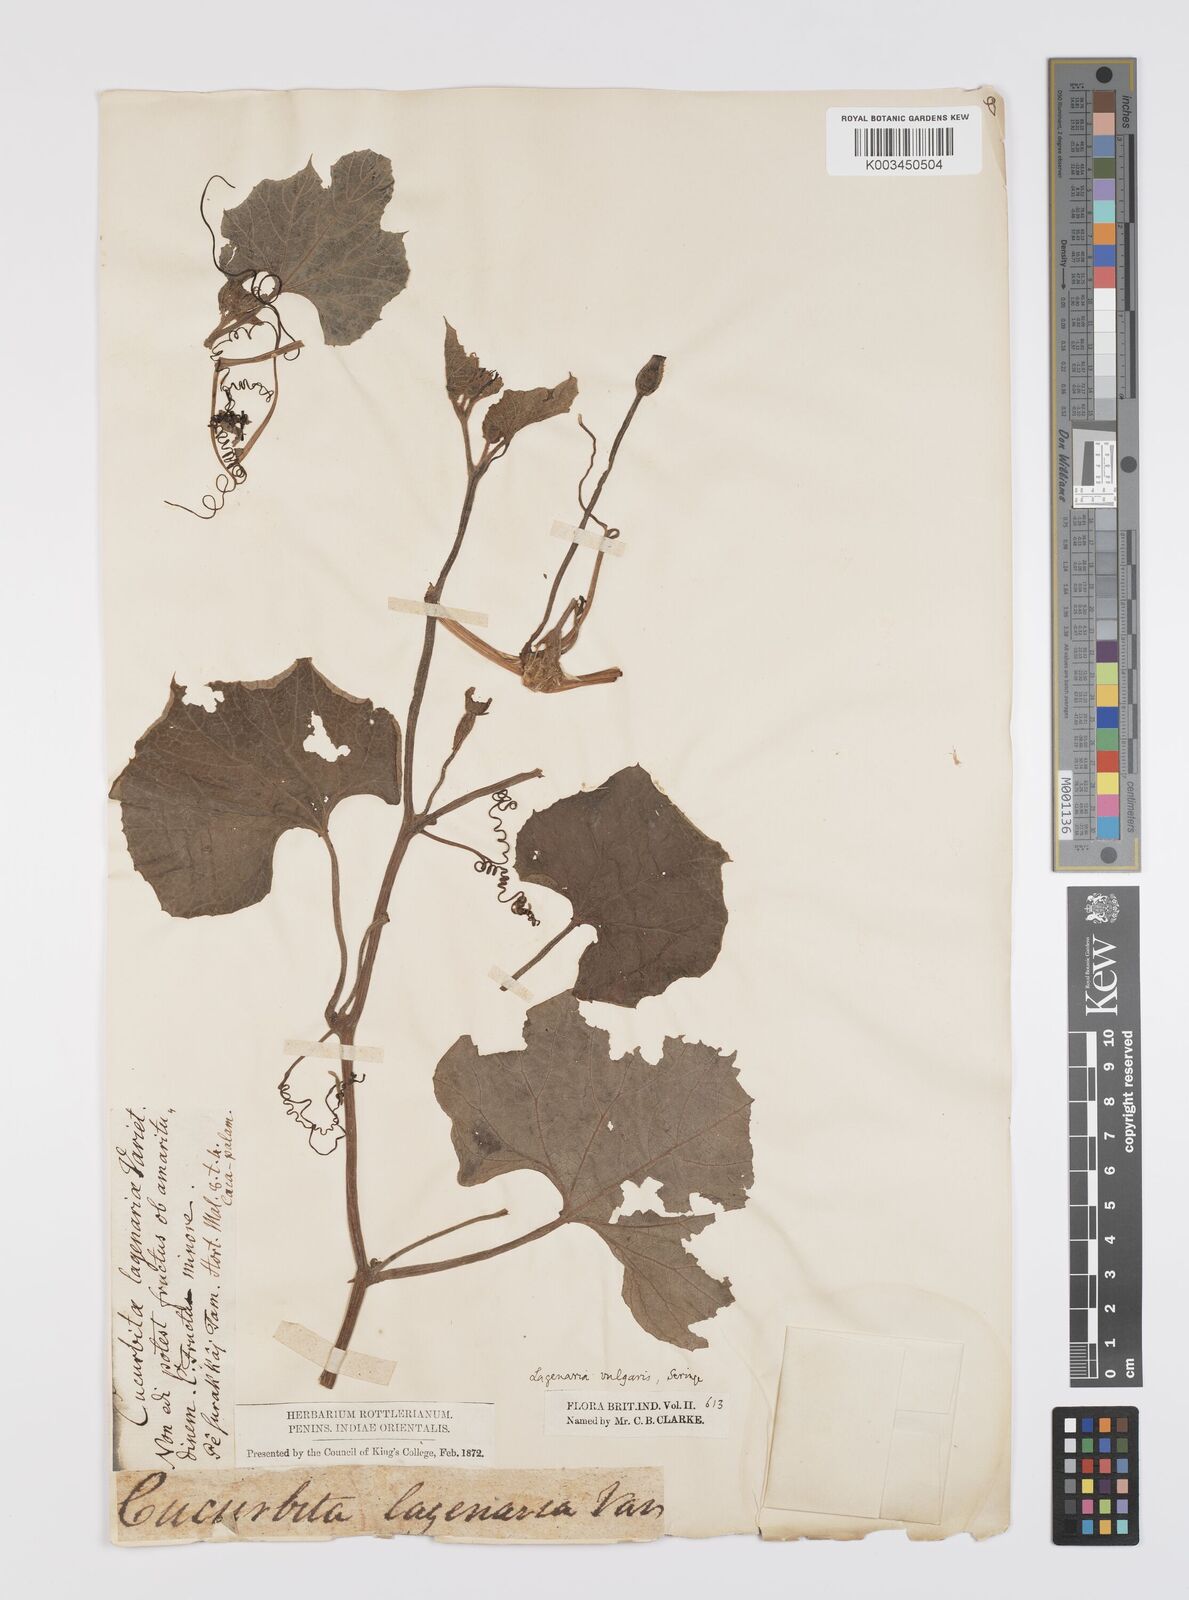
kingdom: Plantae
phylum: Tracheophyta
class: Magnoliopsida
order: Cucurbitales
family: Cucurbitaceae
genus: Lagenaria
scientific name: Lagenaria siceraria
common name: Bottle gourd
